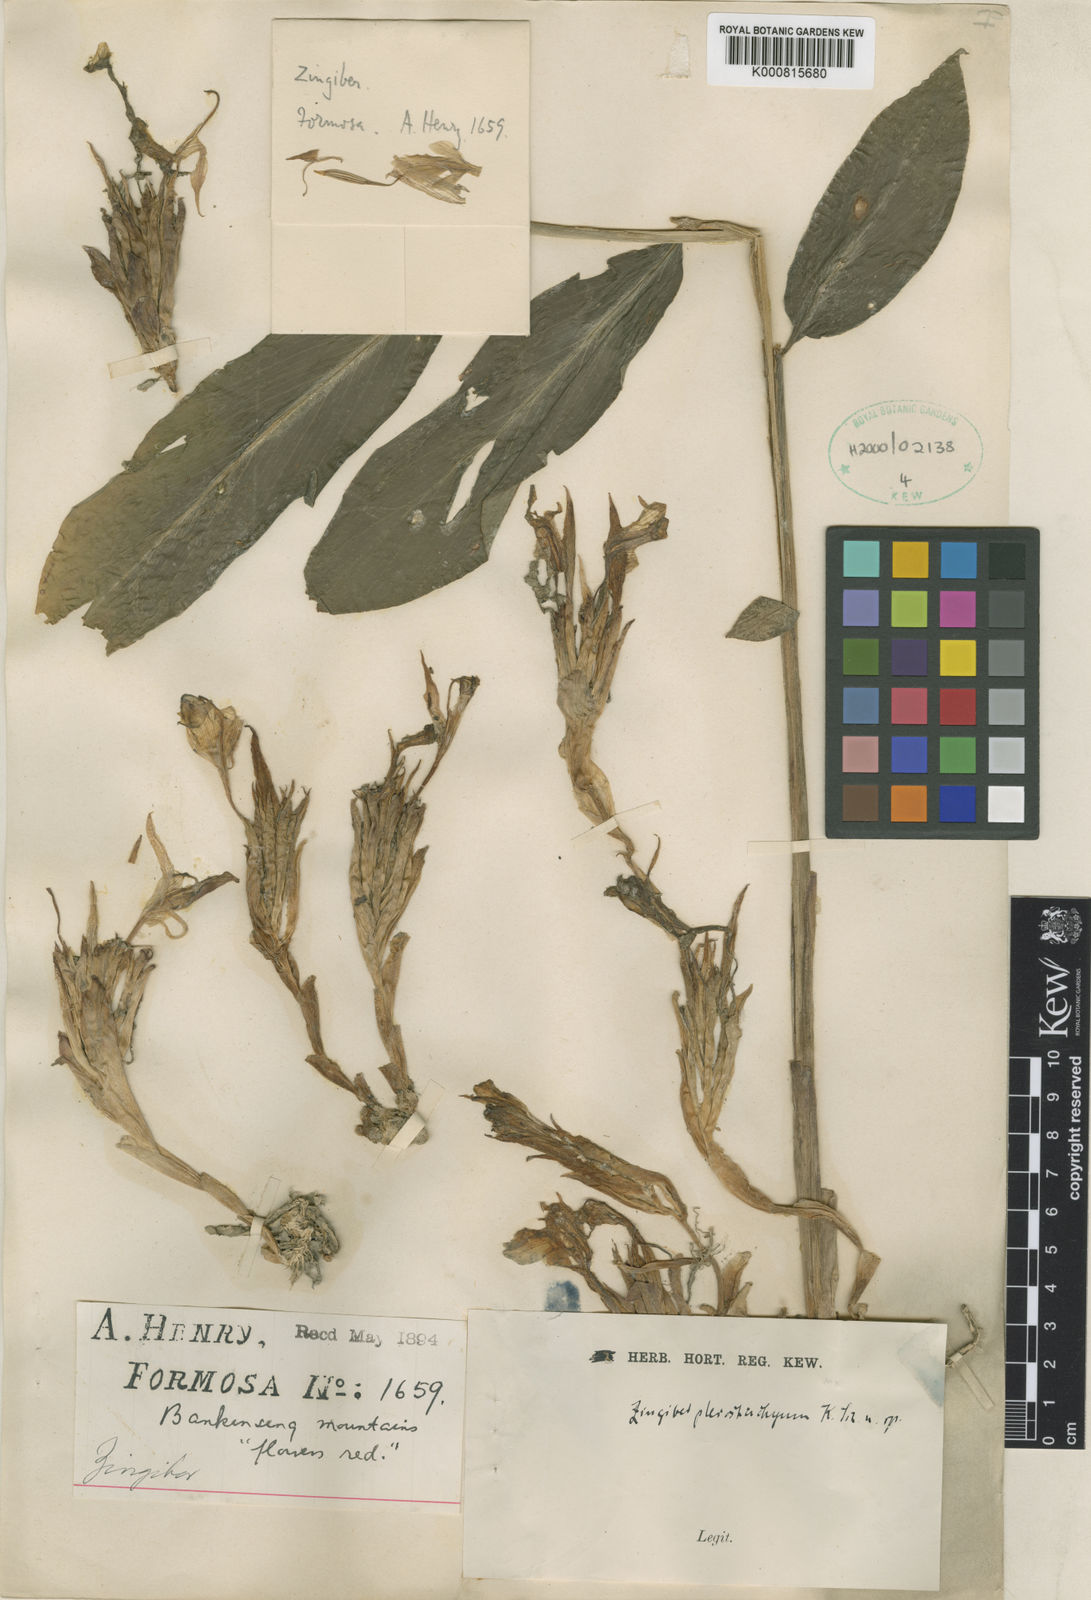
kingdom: Plantae
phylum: Tracheophyta
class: Liliopsida
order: Zingiberales
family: Zingiberaceae
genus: Zingiber
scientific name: Zingiber pleiostachyum
